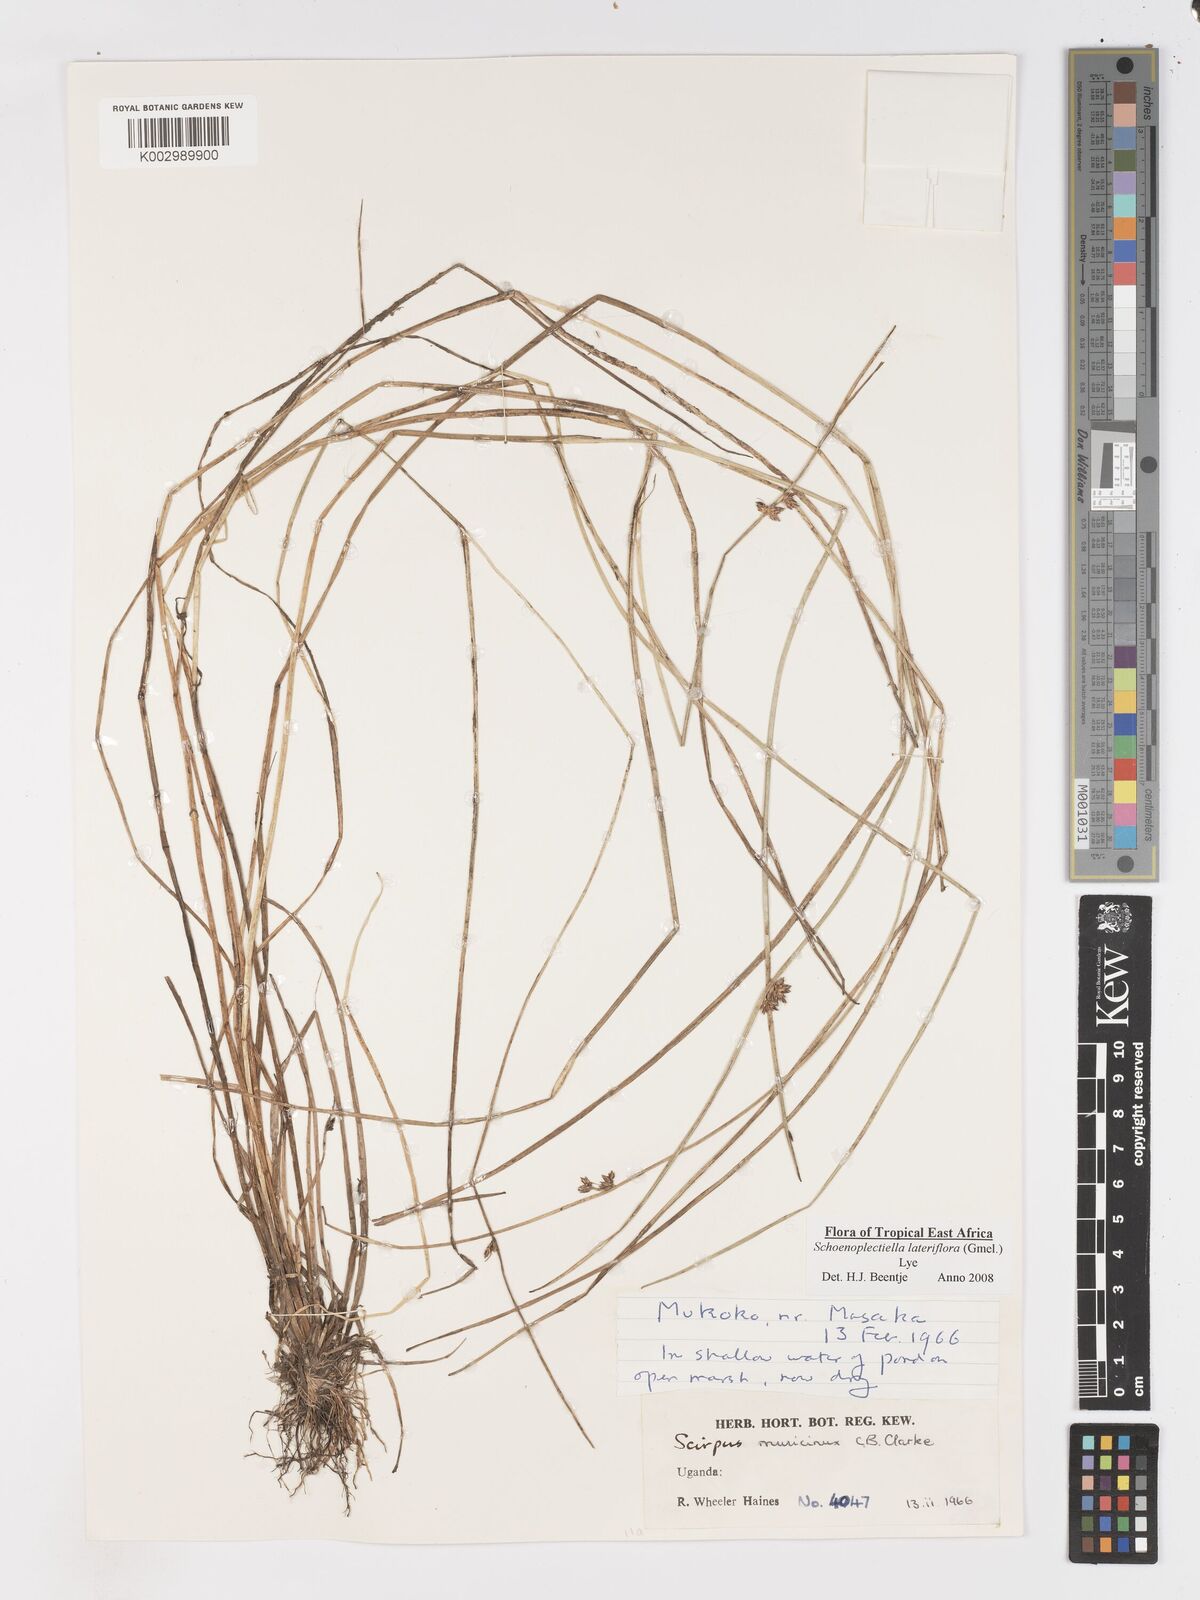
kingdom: Plantae
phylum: Tracheophyta
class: Liliopsida
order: Poales
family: Cyperaceae
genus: Schoenoplectiella
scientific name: Schoenoplectiella lateriflora
